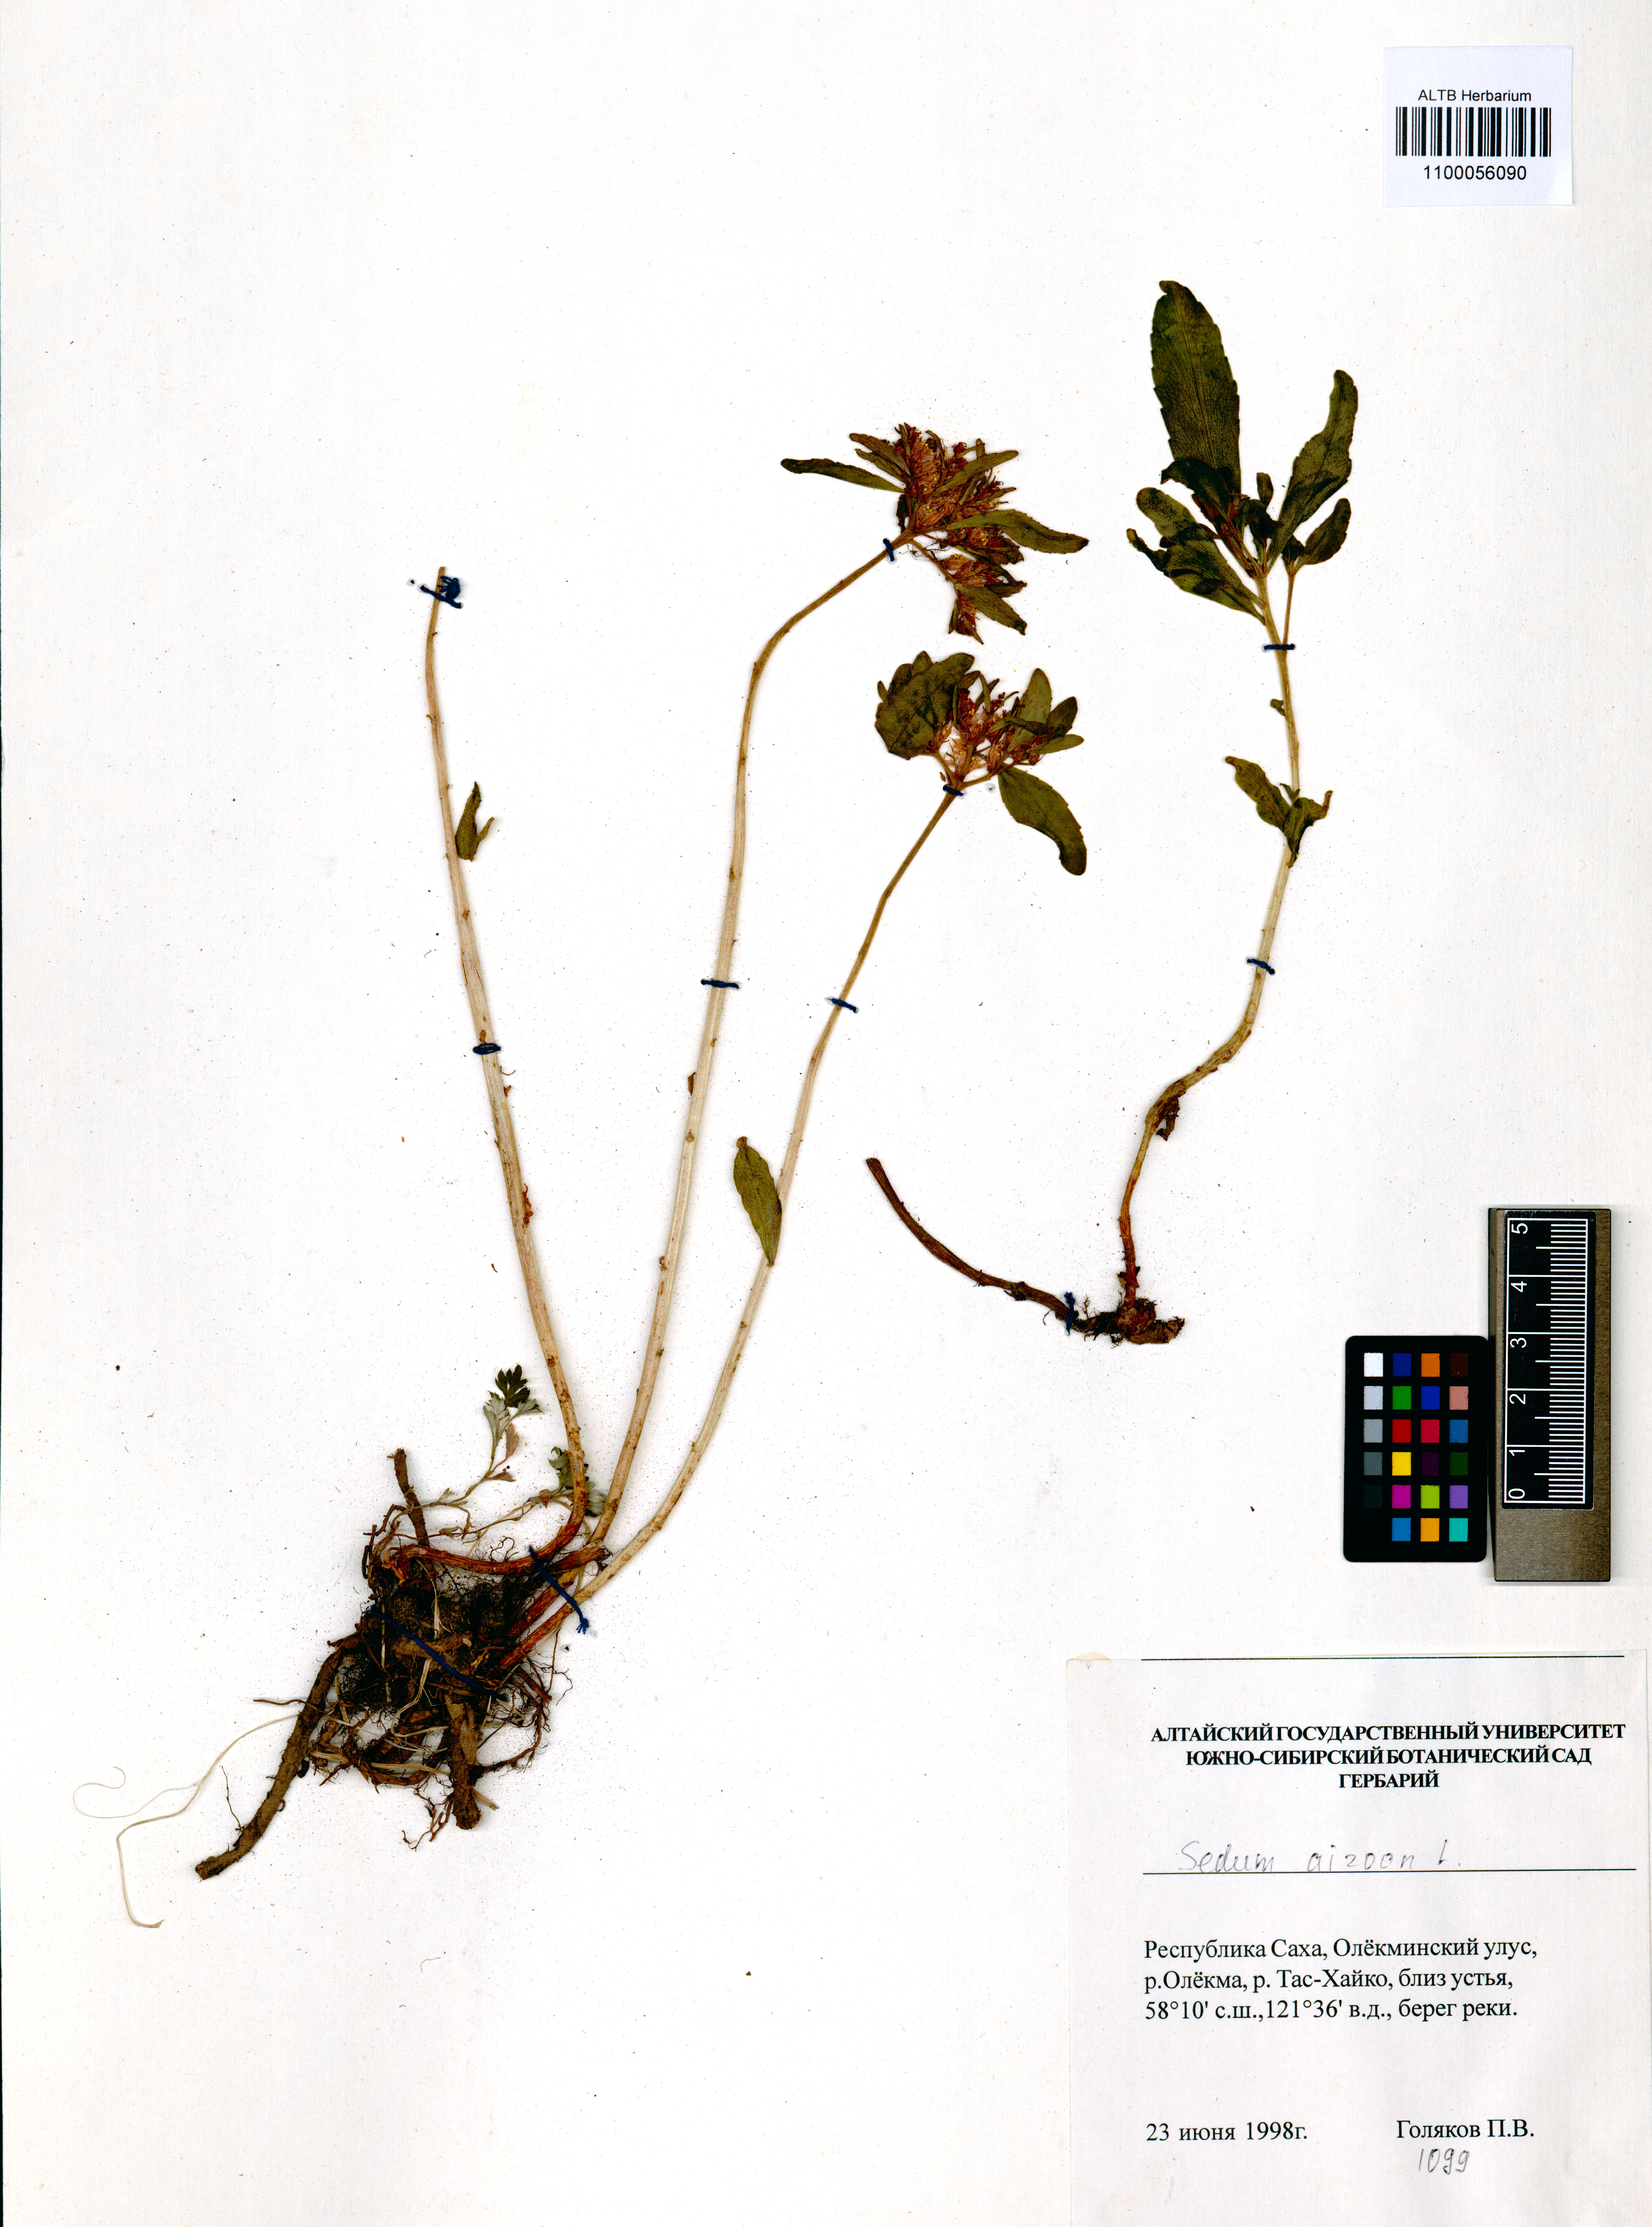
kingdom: Plantae
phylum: Tracheophyta
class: Magnoliopsida
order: Saxifragales
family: Crassulaceae
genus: Phedimus
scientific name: Phedimus aizoon
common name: Orpin aizoon
